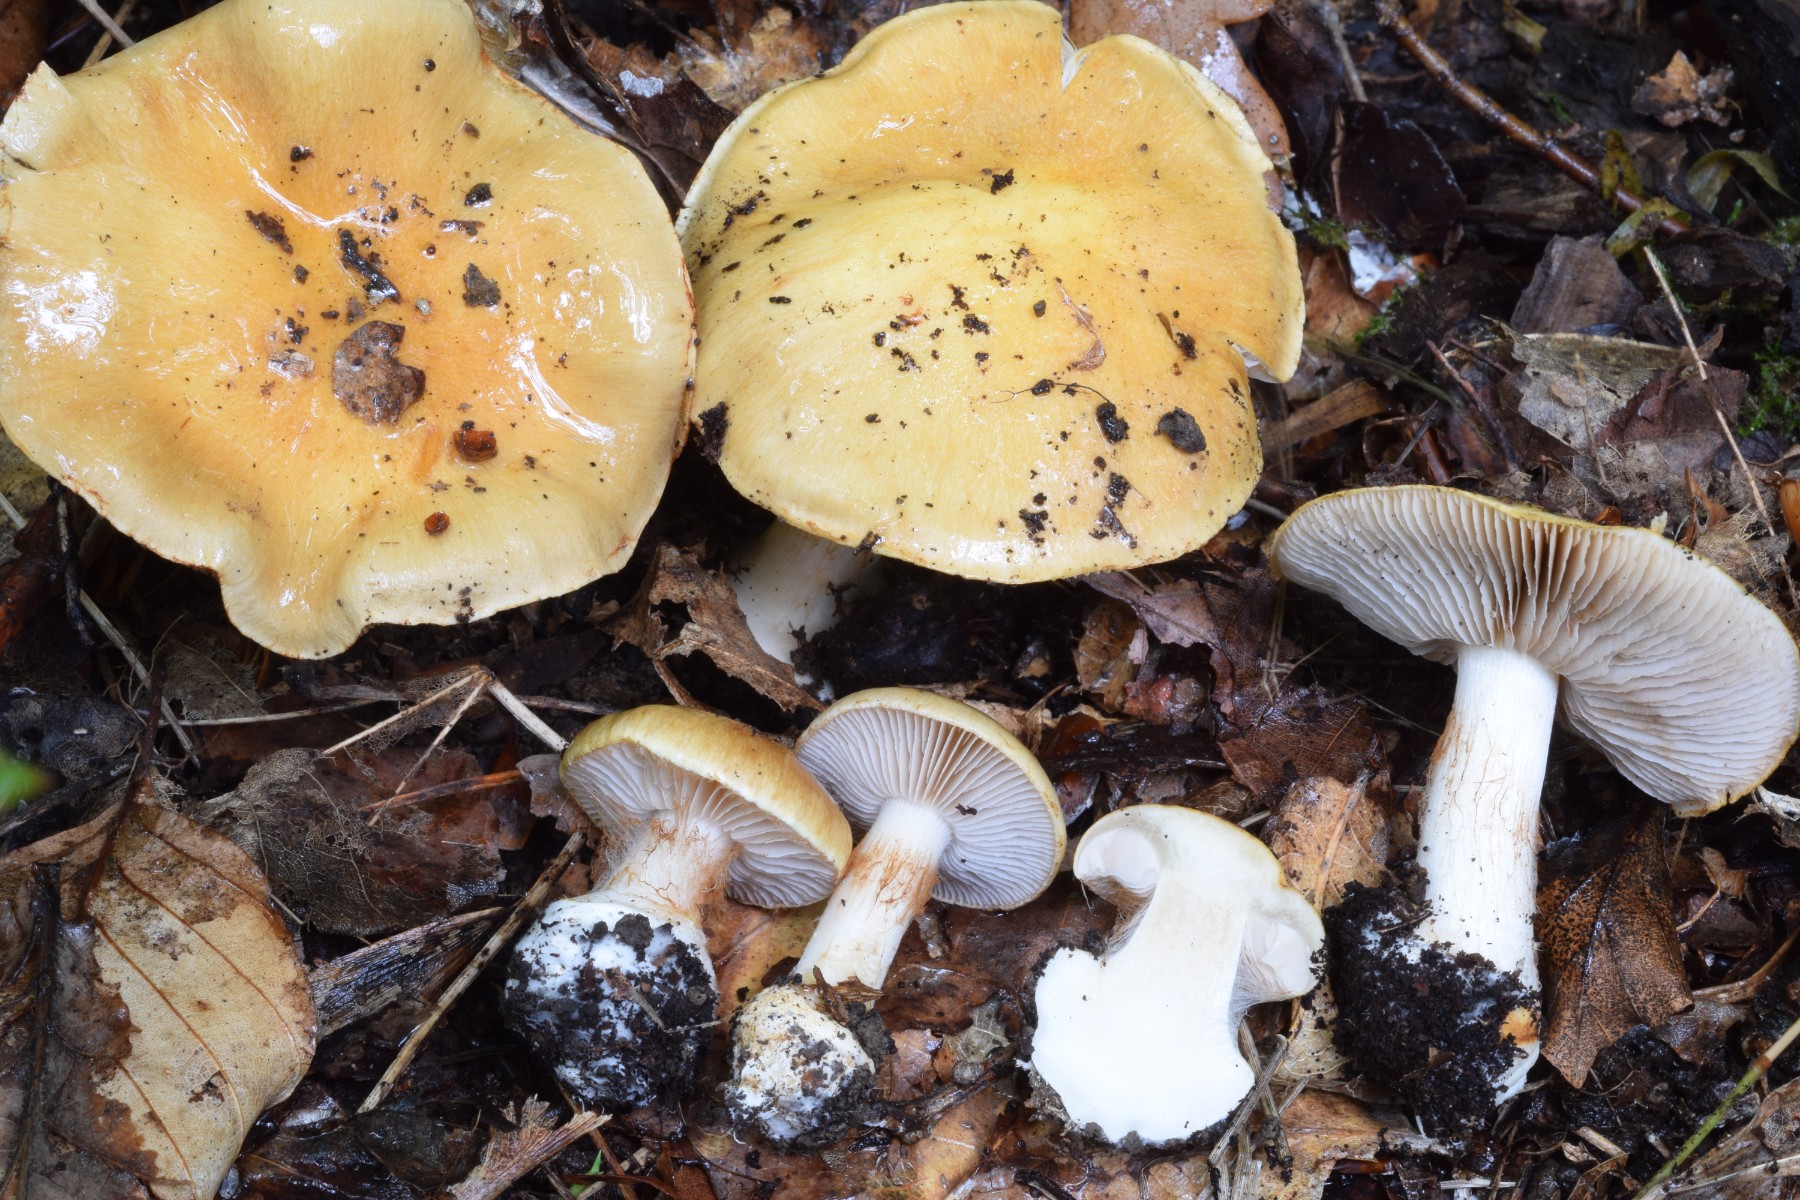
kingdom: Fungi
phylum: Basidiomycota
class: Agaricomycetes
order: Agaricales
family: Cortinariaceae
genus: Cortinarius
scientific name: Cortinarius
